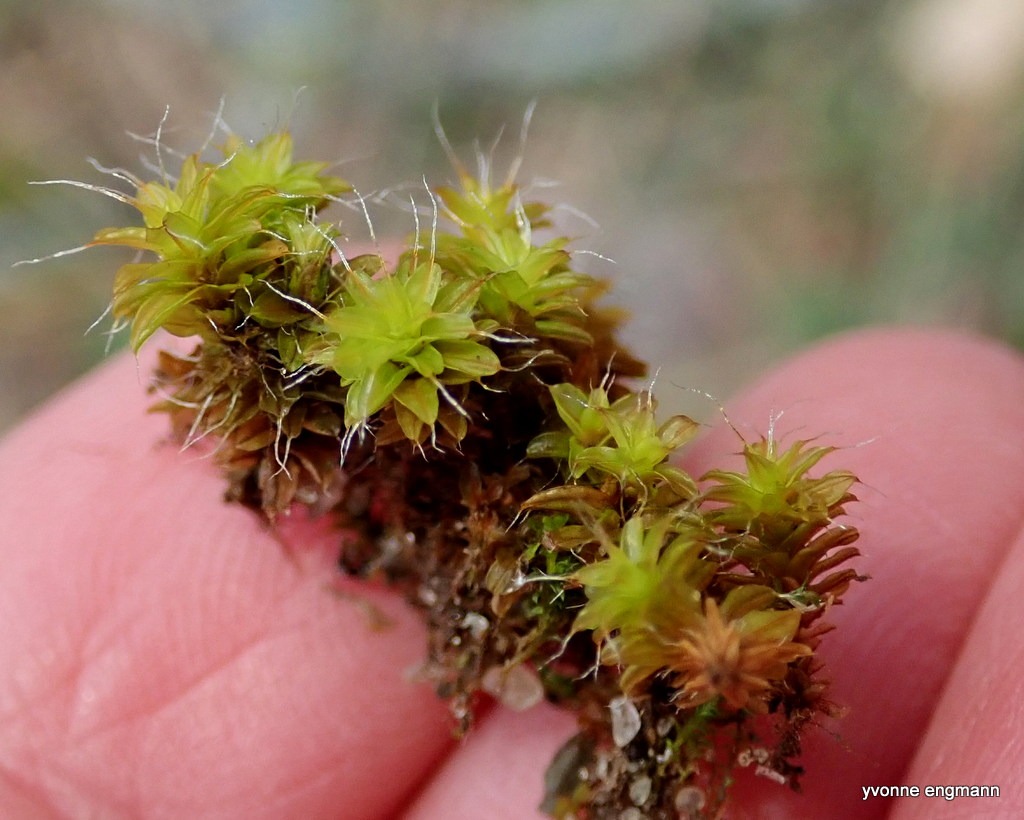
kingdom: Plantae
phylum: Bryophyta
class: Bryopsida
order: Pottiales
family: Pottiaceae
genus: Syntrichia
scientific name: Syntrichia ruralis
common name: Tag-hårstjerne
